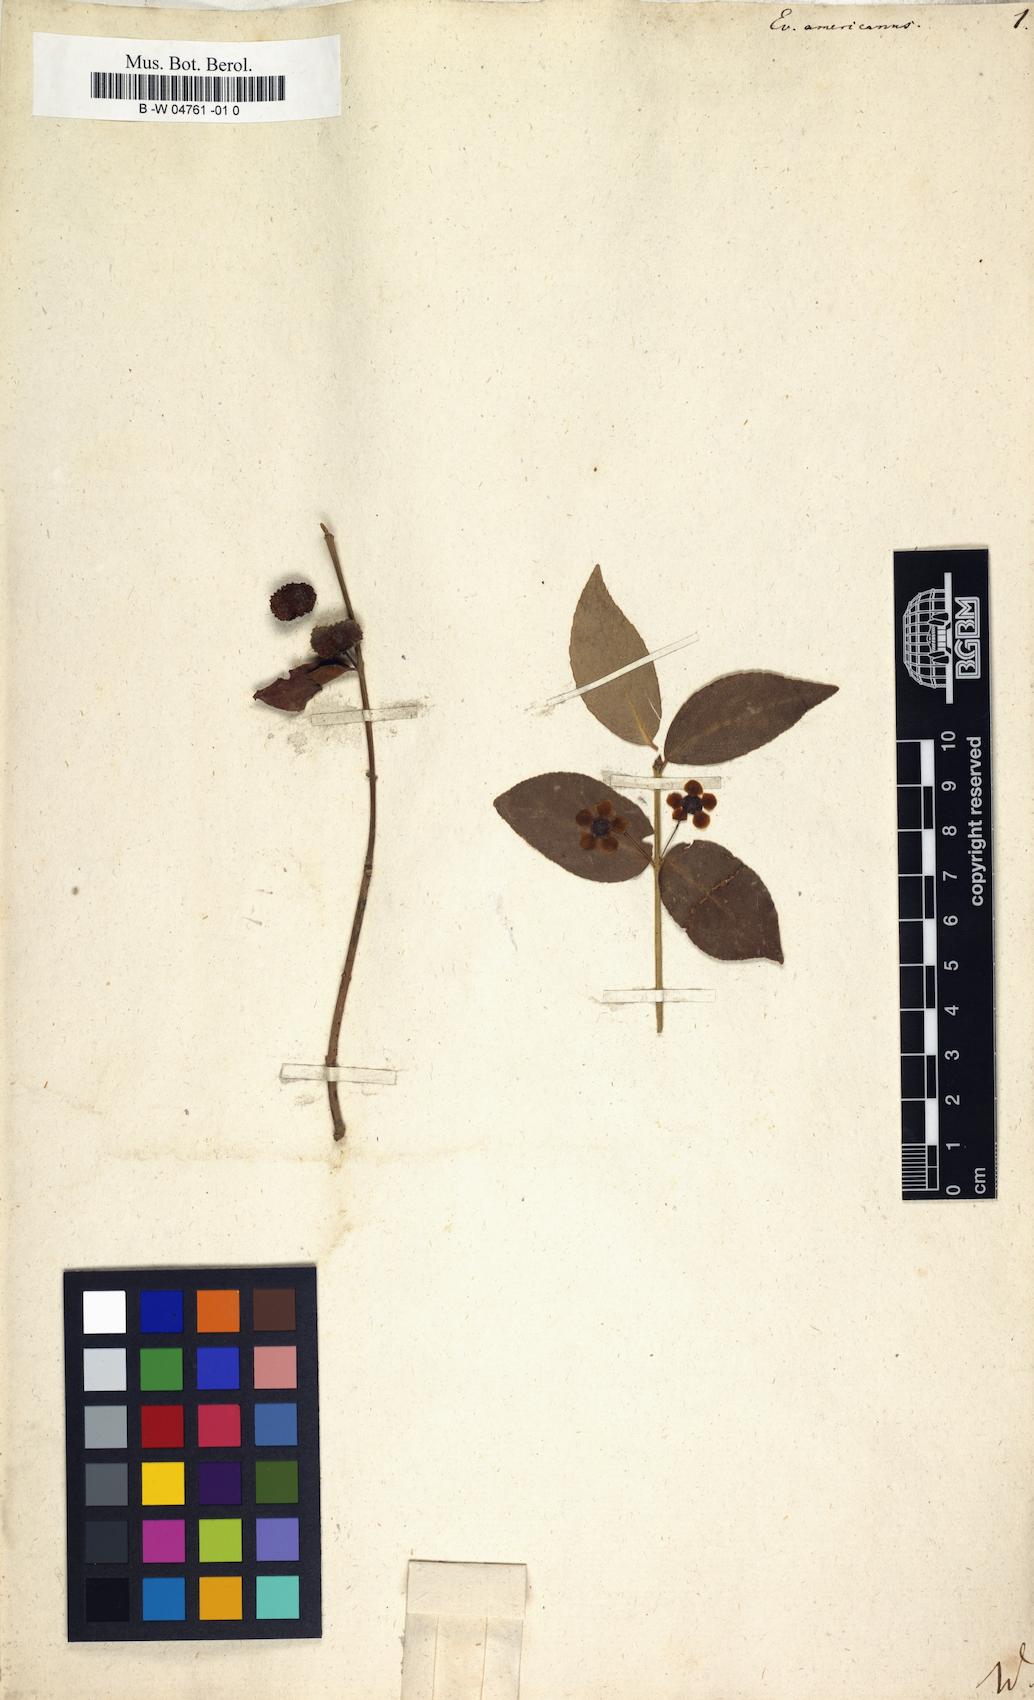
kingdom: Plantae
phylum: Tracheophyta
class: Magnoliopsida
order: Celastrales
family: Celastraceae
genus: Euonymus
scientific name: Euonymus americanus
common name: Bursting-heart
